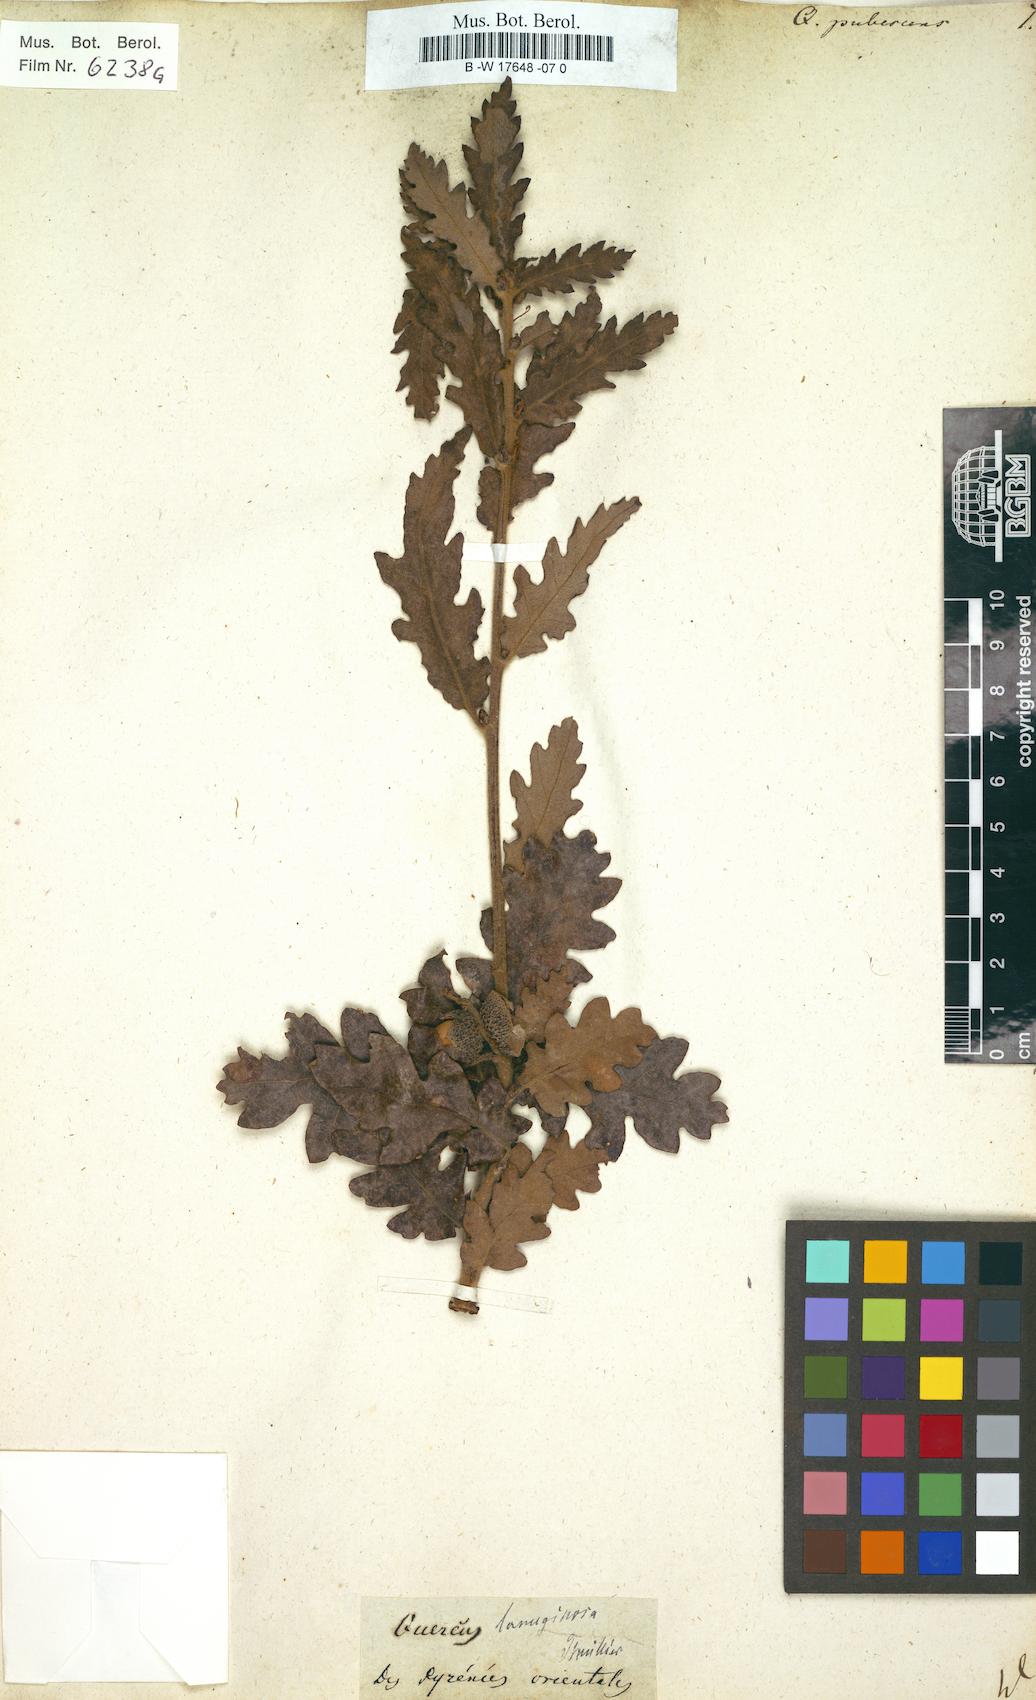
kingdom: Plantae
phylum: Tracheophyta
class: Magnoliopsida
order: Fagales
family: Fagaceae
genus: Quercus
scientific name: Quercus pubescens
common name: Downy oak
